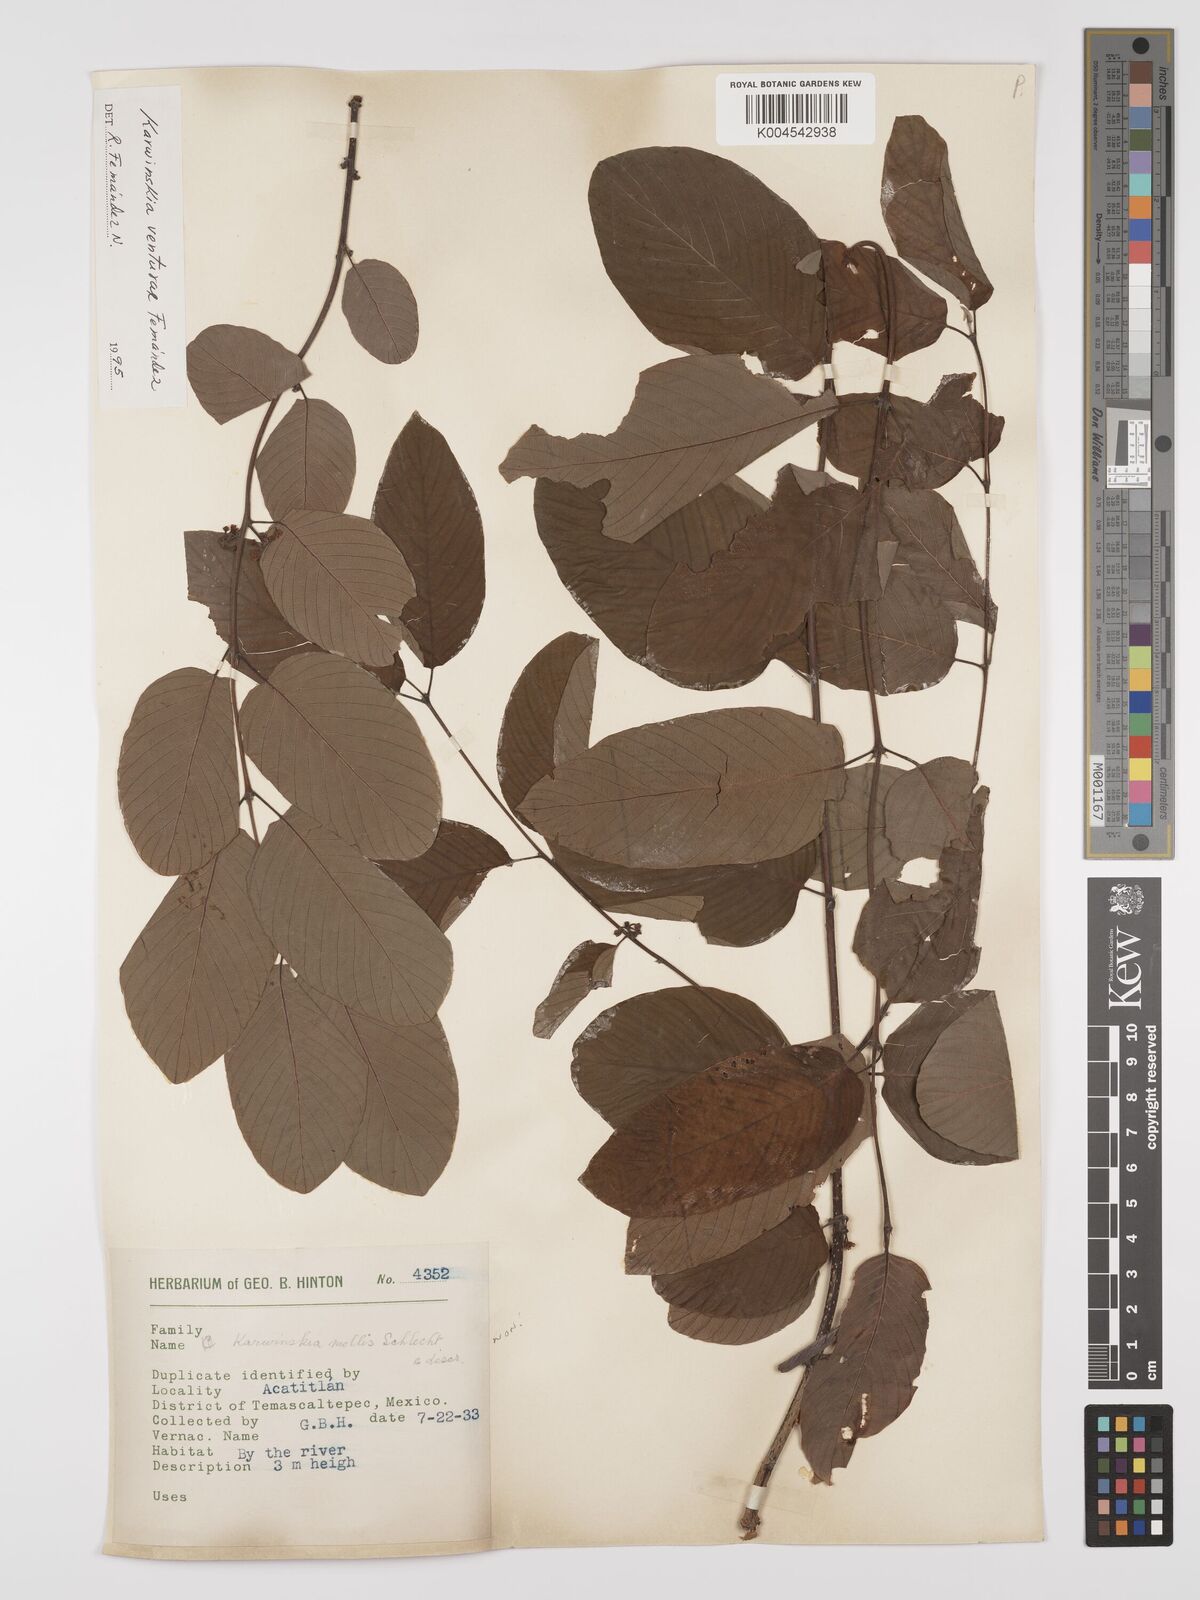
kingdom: Plantae
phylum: Tracheophyta
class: Magnoliopsida
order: Rosales
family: Rhamnaceae
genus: Karwinskia
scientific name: Karwinskia venturae
